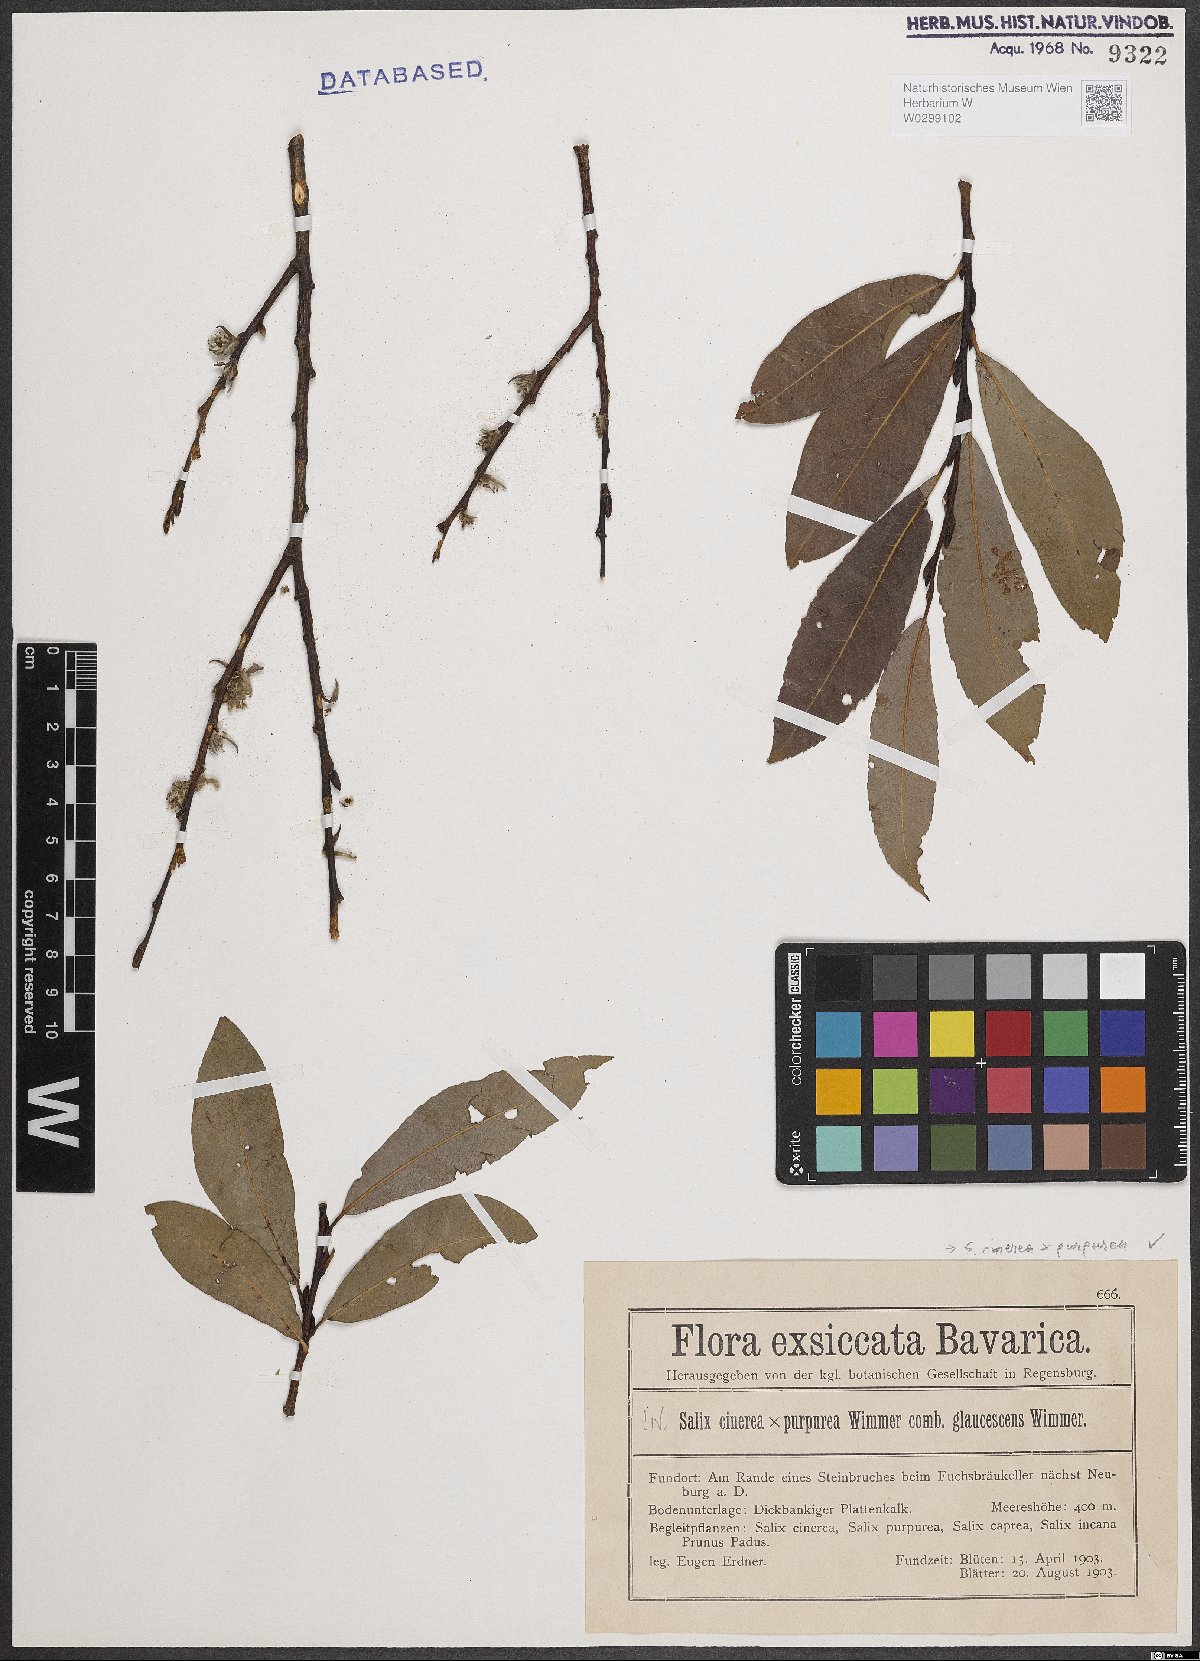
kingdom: Plantae
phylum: Tracheophyta
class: Magnoliopsida
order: Malpighiales
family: Salicaceae
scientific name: Salicaceae
